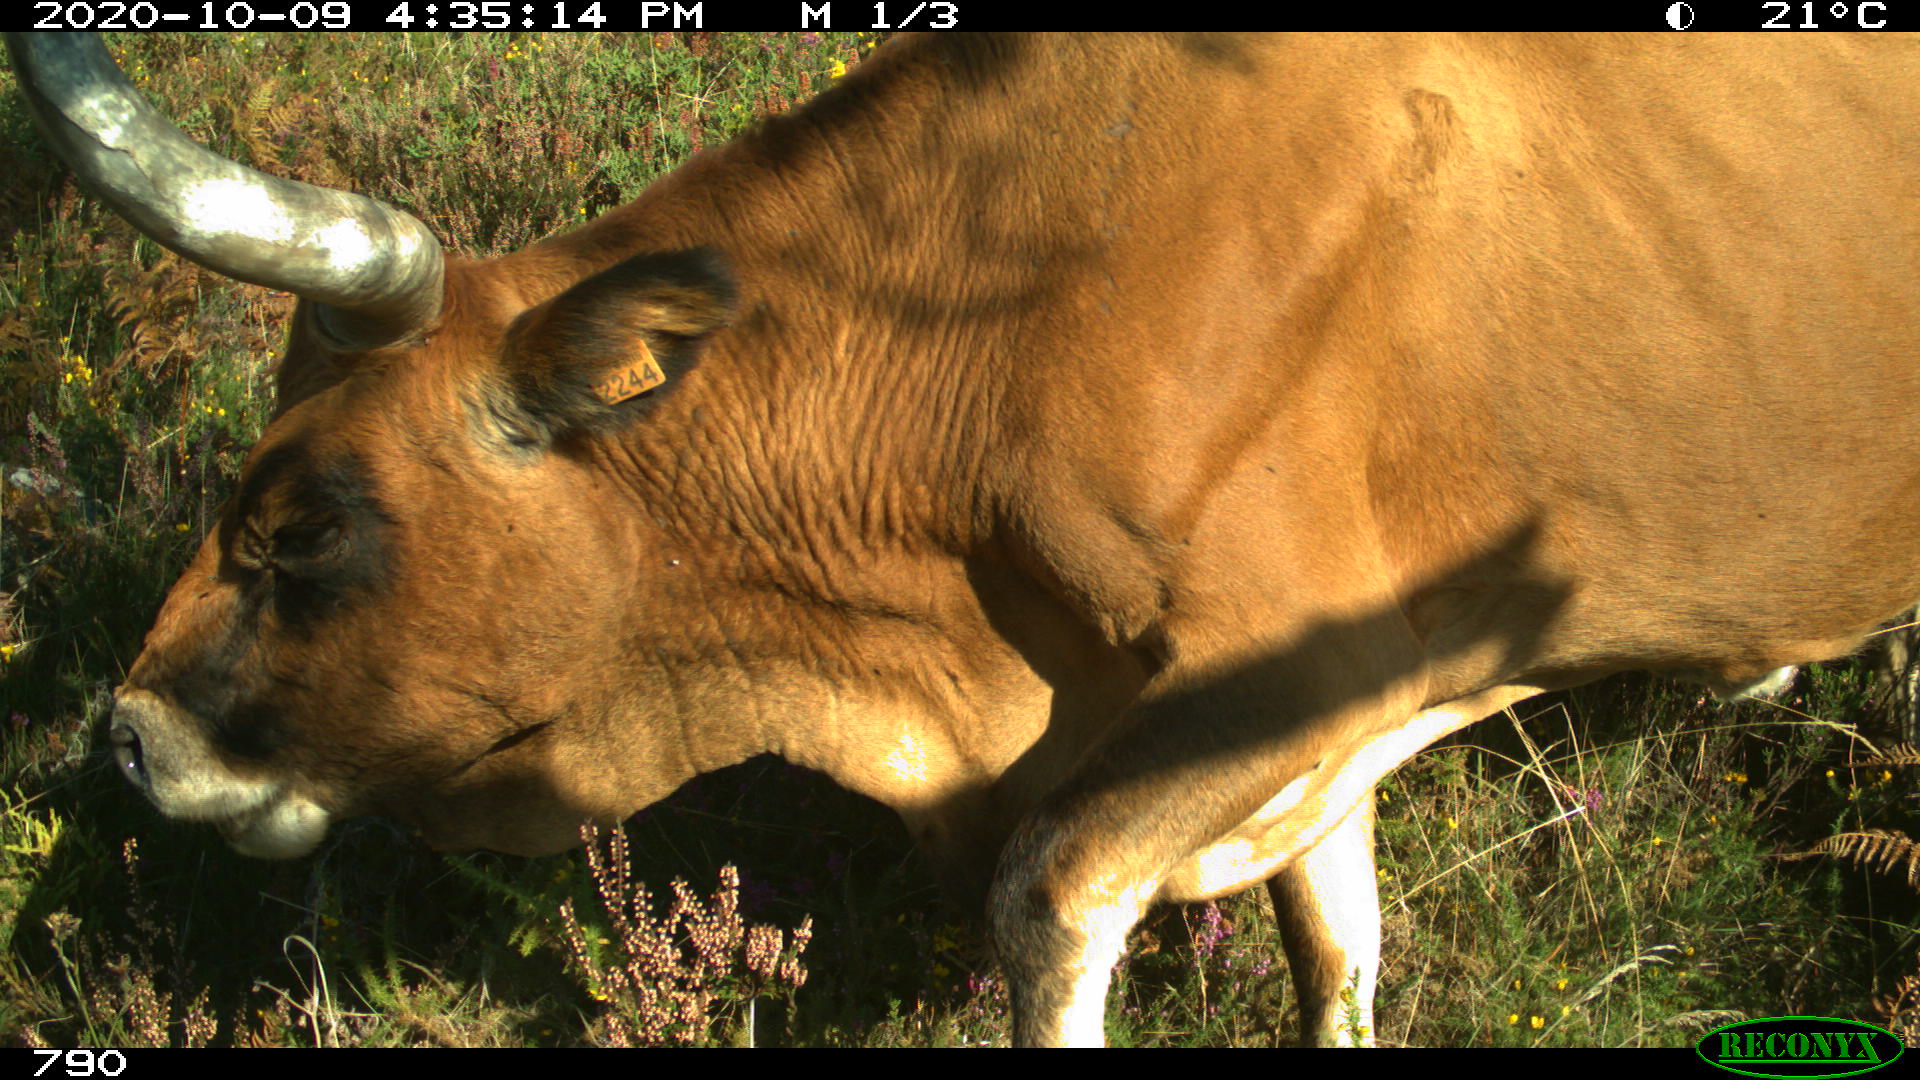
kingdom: Animalia
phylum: Chordata
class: Mammalia
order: Artiodactyla
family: Bovidae
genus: Bos
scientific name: Bos taurus
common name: Domesticated cattle
